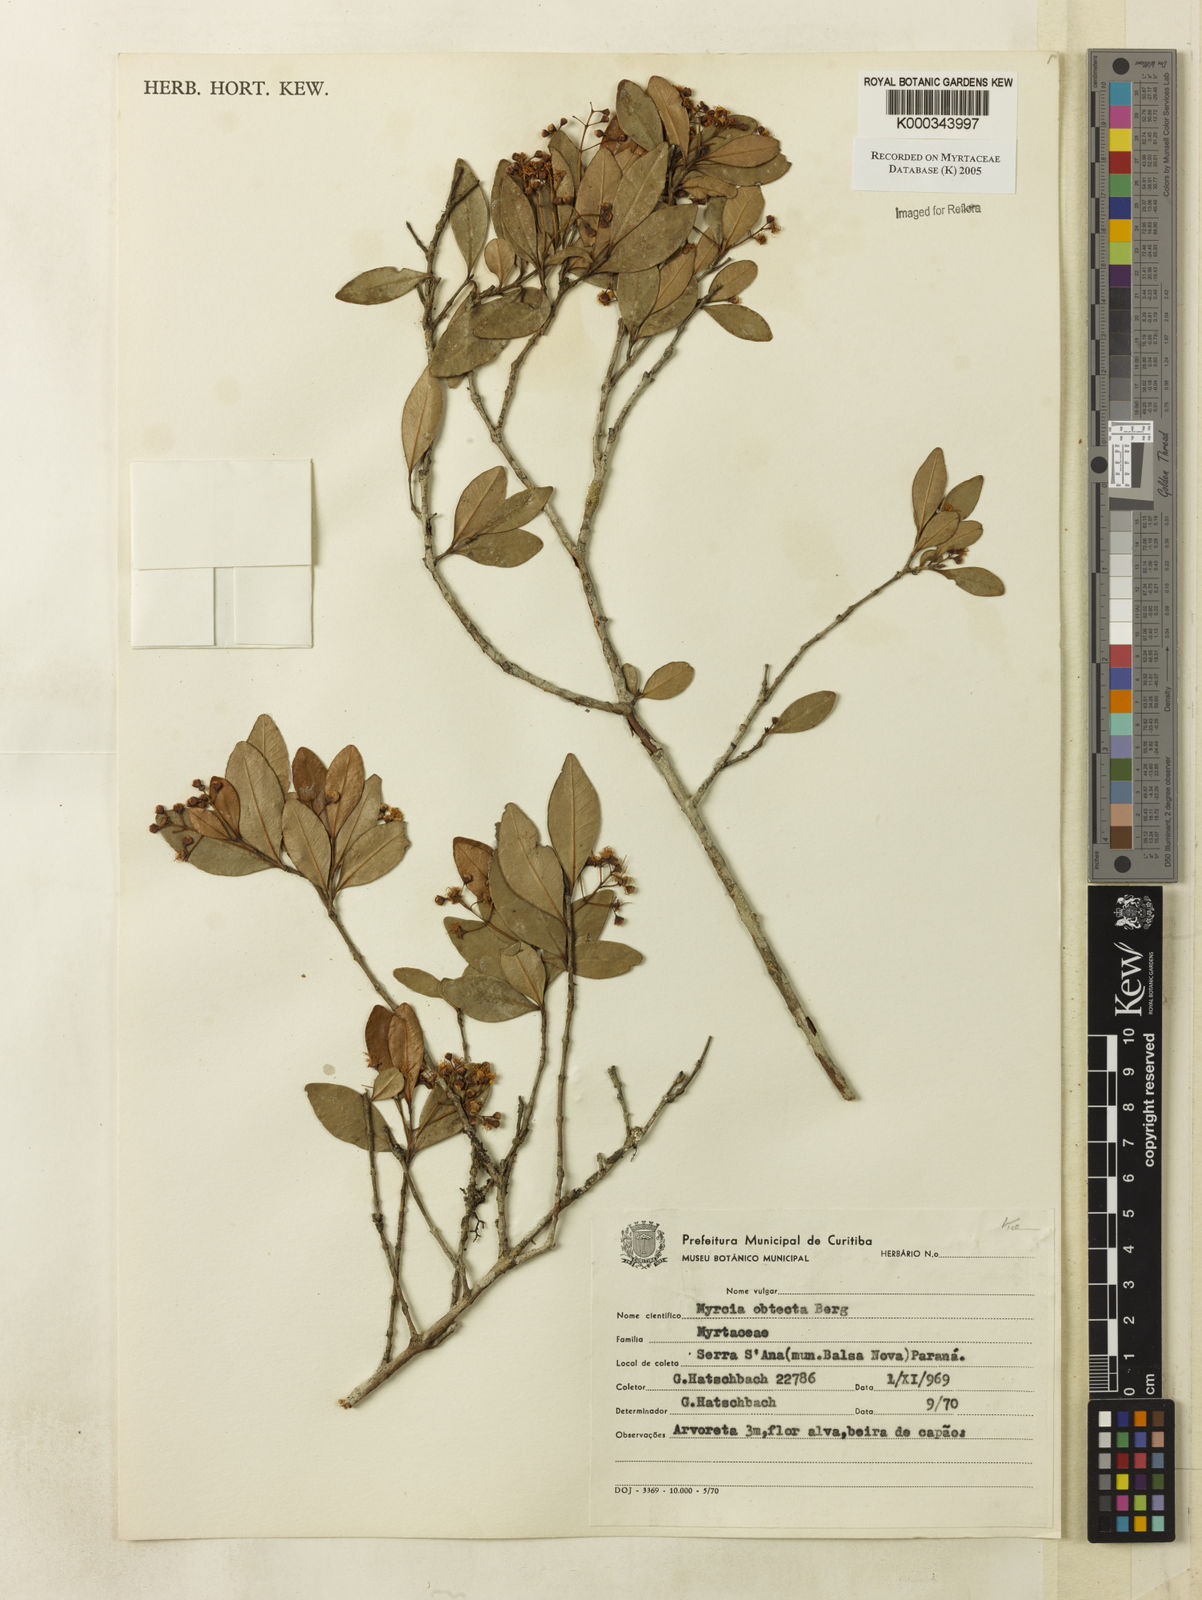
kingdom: Plantae
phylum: Tracheophyta
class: Magnoliopsida
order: Myrtales
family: Myrtaceae
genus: Myrcia
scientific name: Myrcia guianensis
